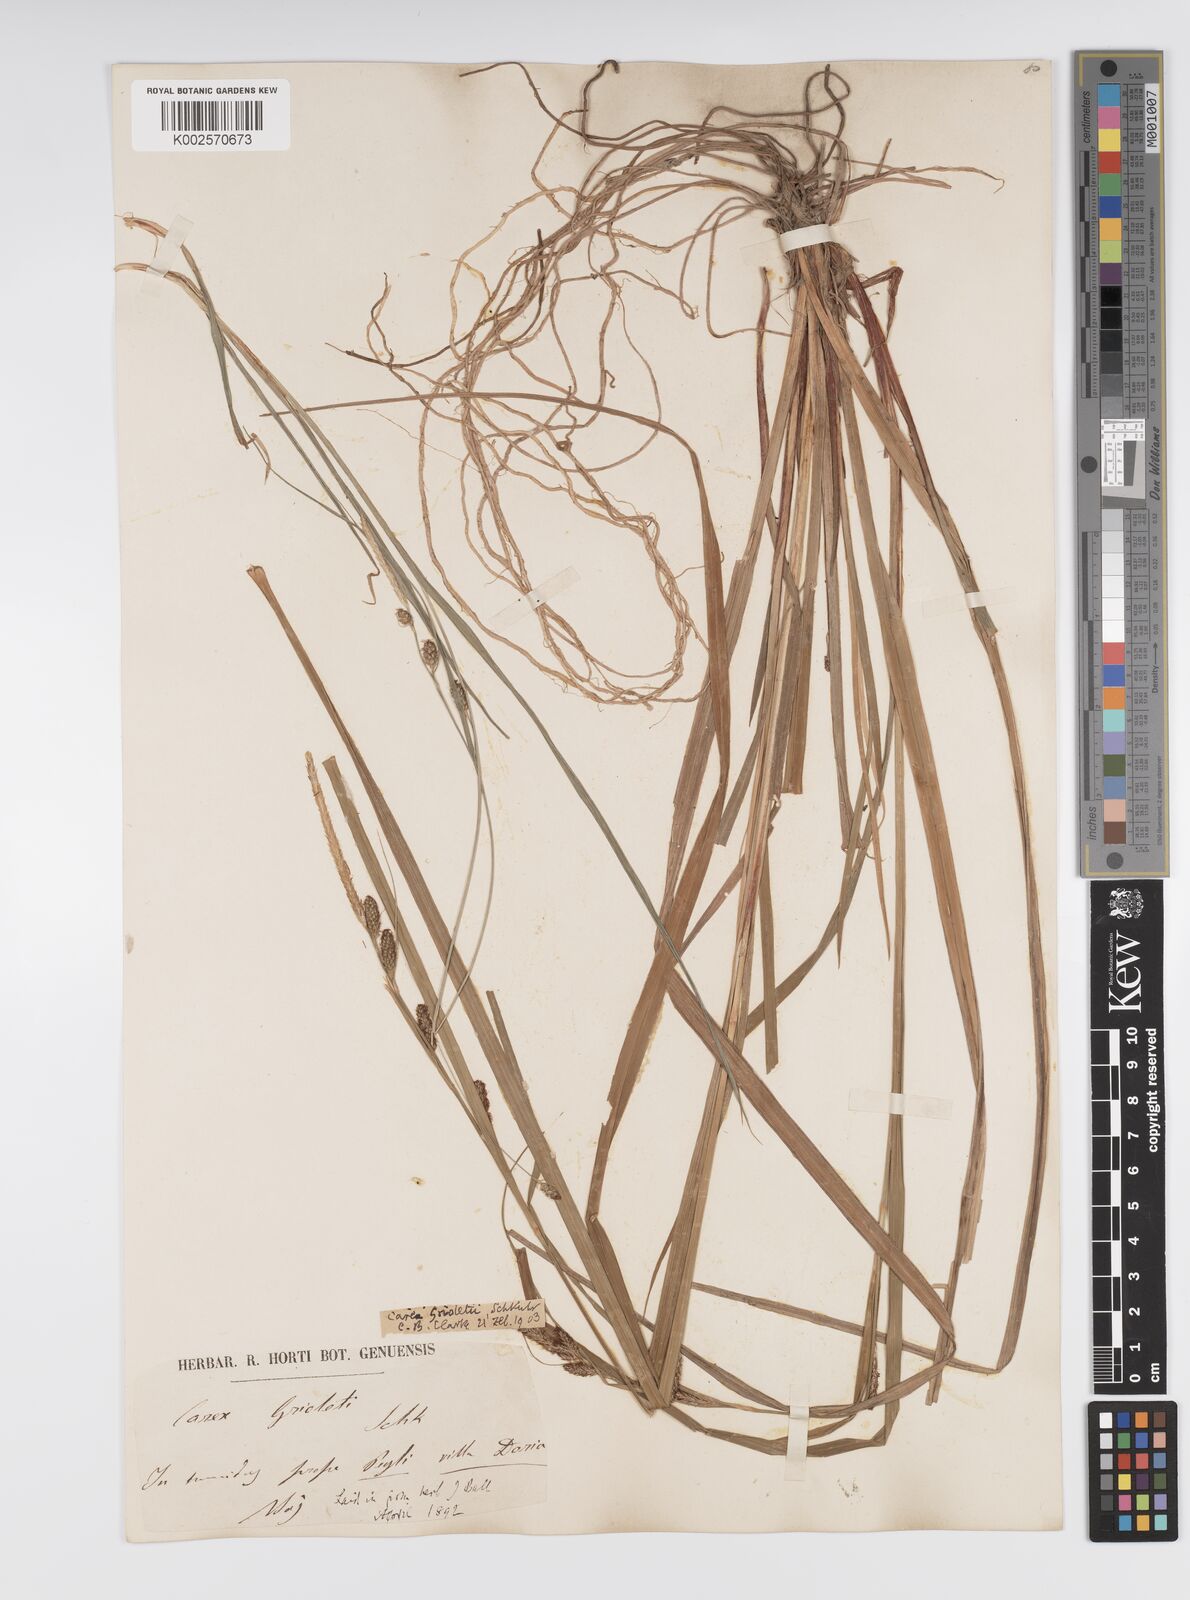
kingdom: Plantae
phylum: Tracheophyta
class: Liliopsida
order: Poales
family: Cyperaceae
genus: Carex
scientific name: Carex grioletii
